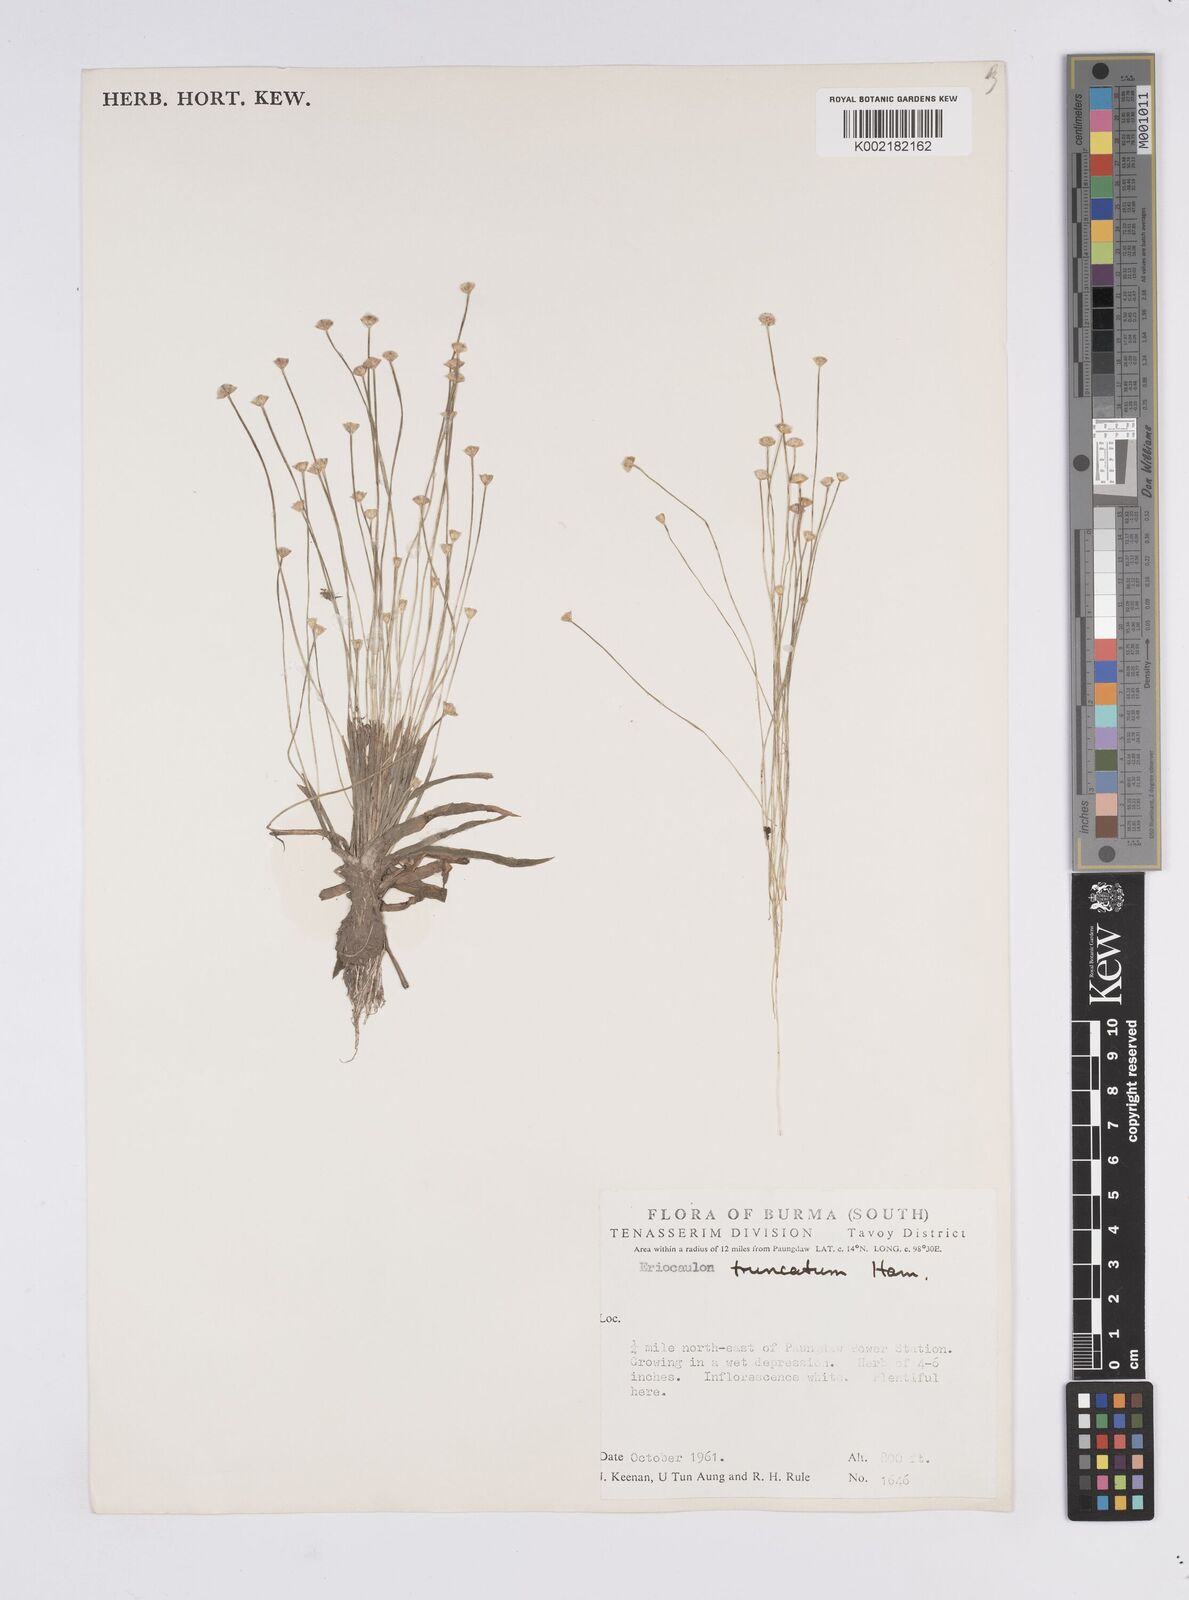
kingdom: Plantae
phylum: Tracheophyta
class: Liliopsida
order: Poales
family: Eriocaulaceae
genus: Eriocaulon
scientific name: Eriocaulon
